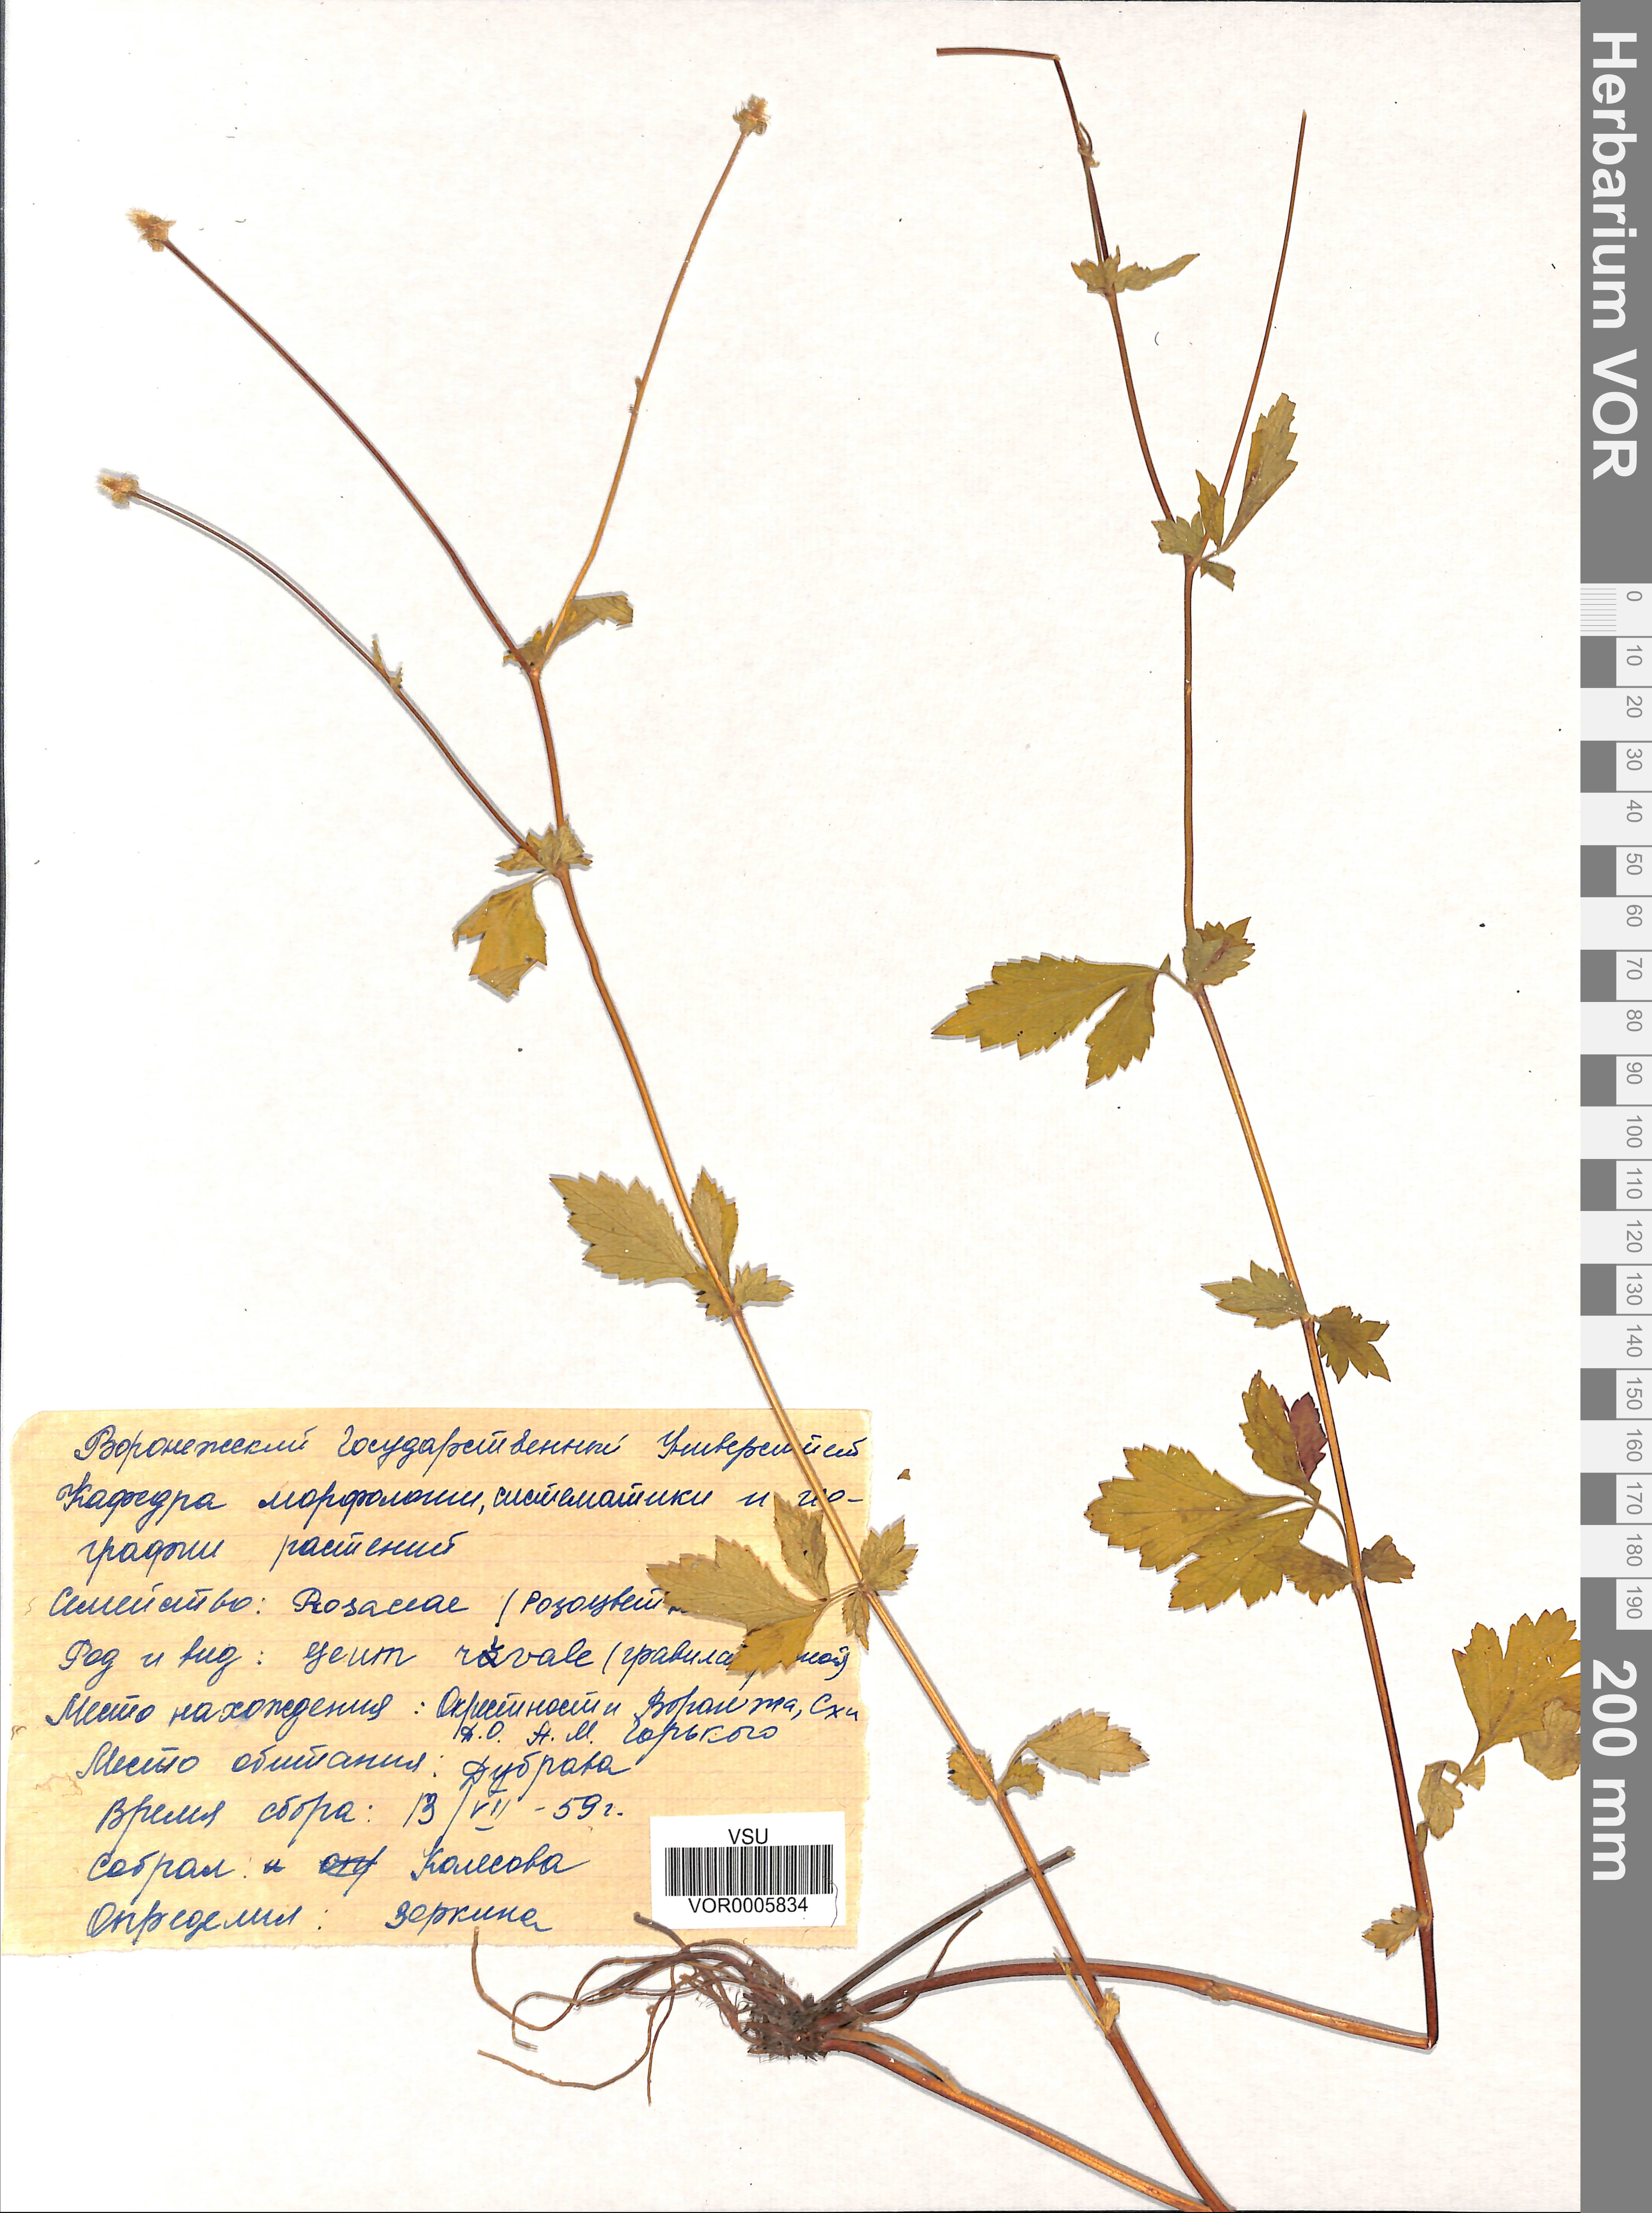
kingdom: Plantae
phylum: Tracheophyta
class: Magnoliopsida
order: Rosales
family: Rosaceae
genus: Geum
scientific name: Geum rivale
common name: Water avens
